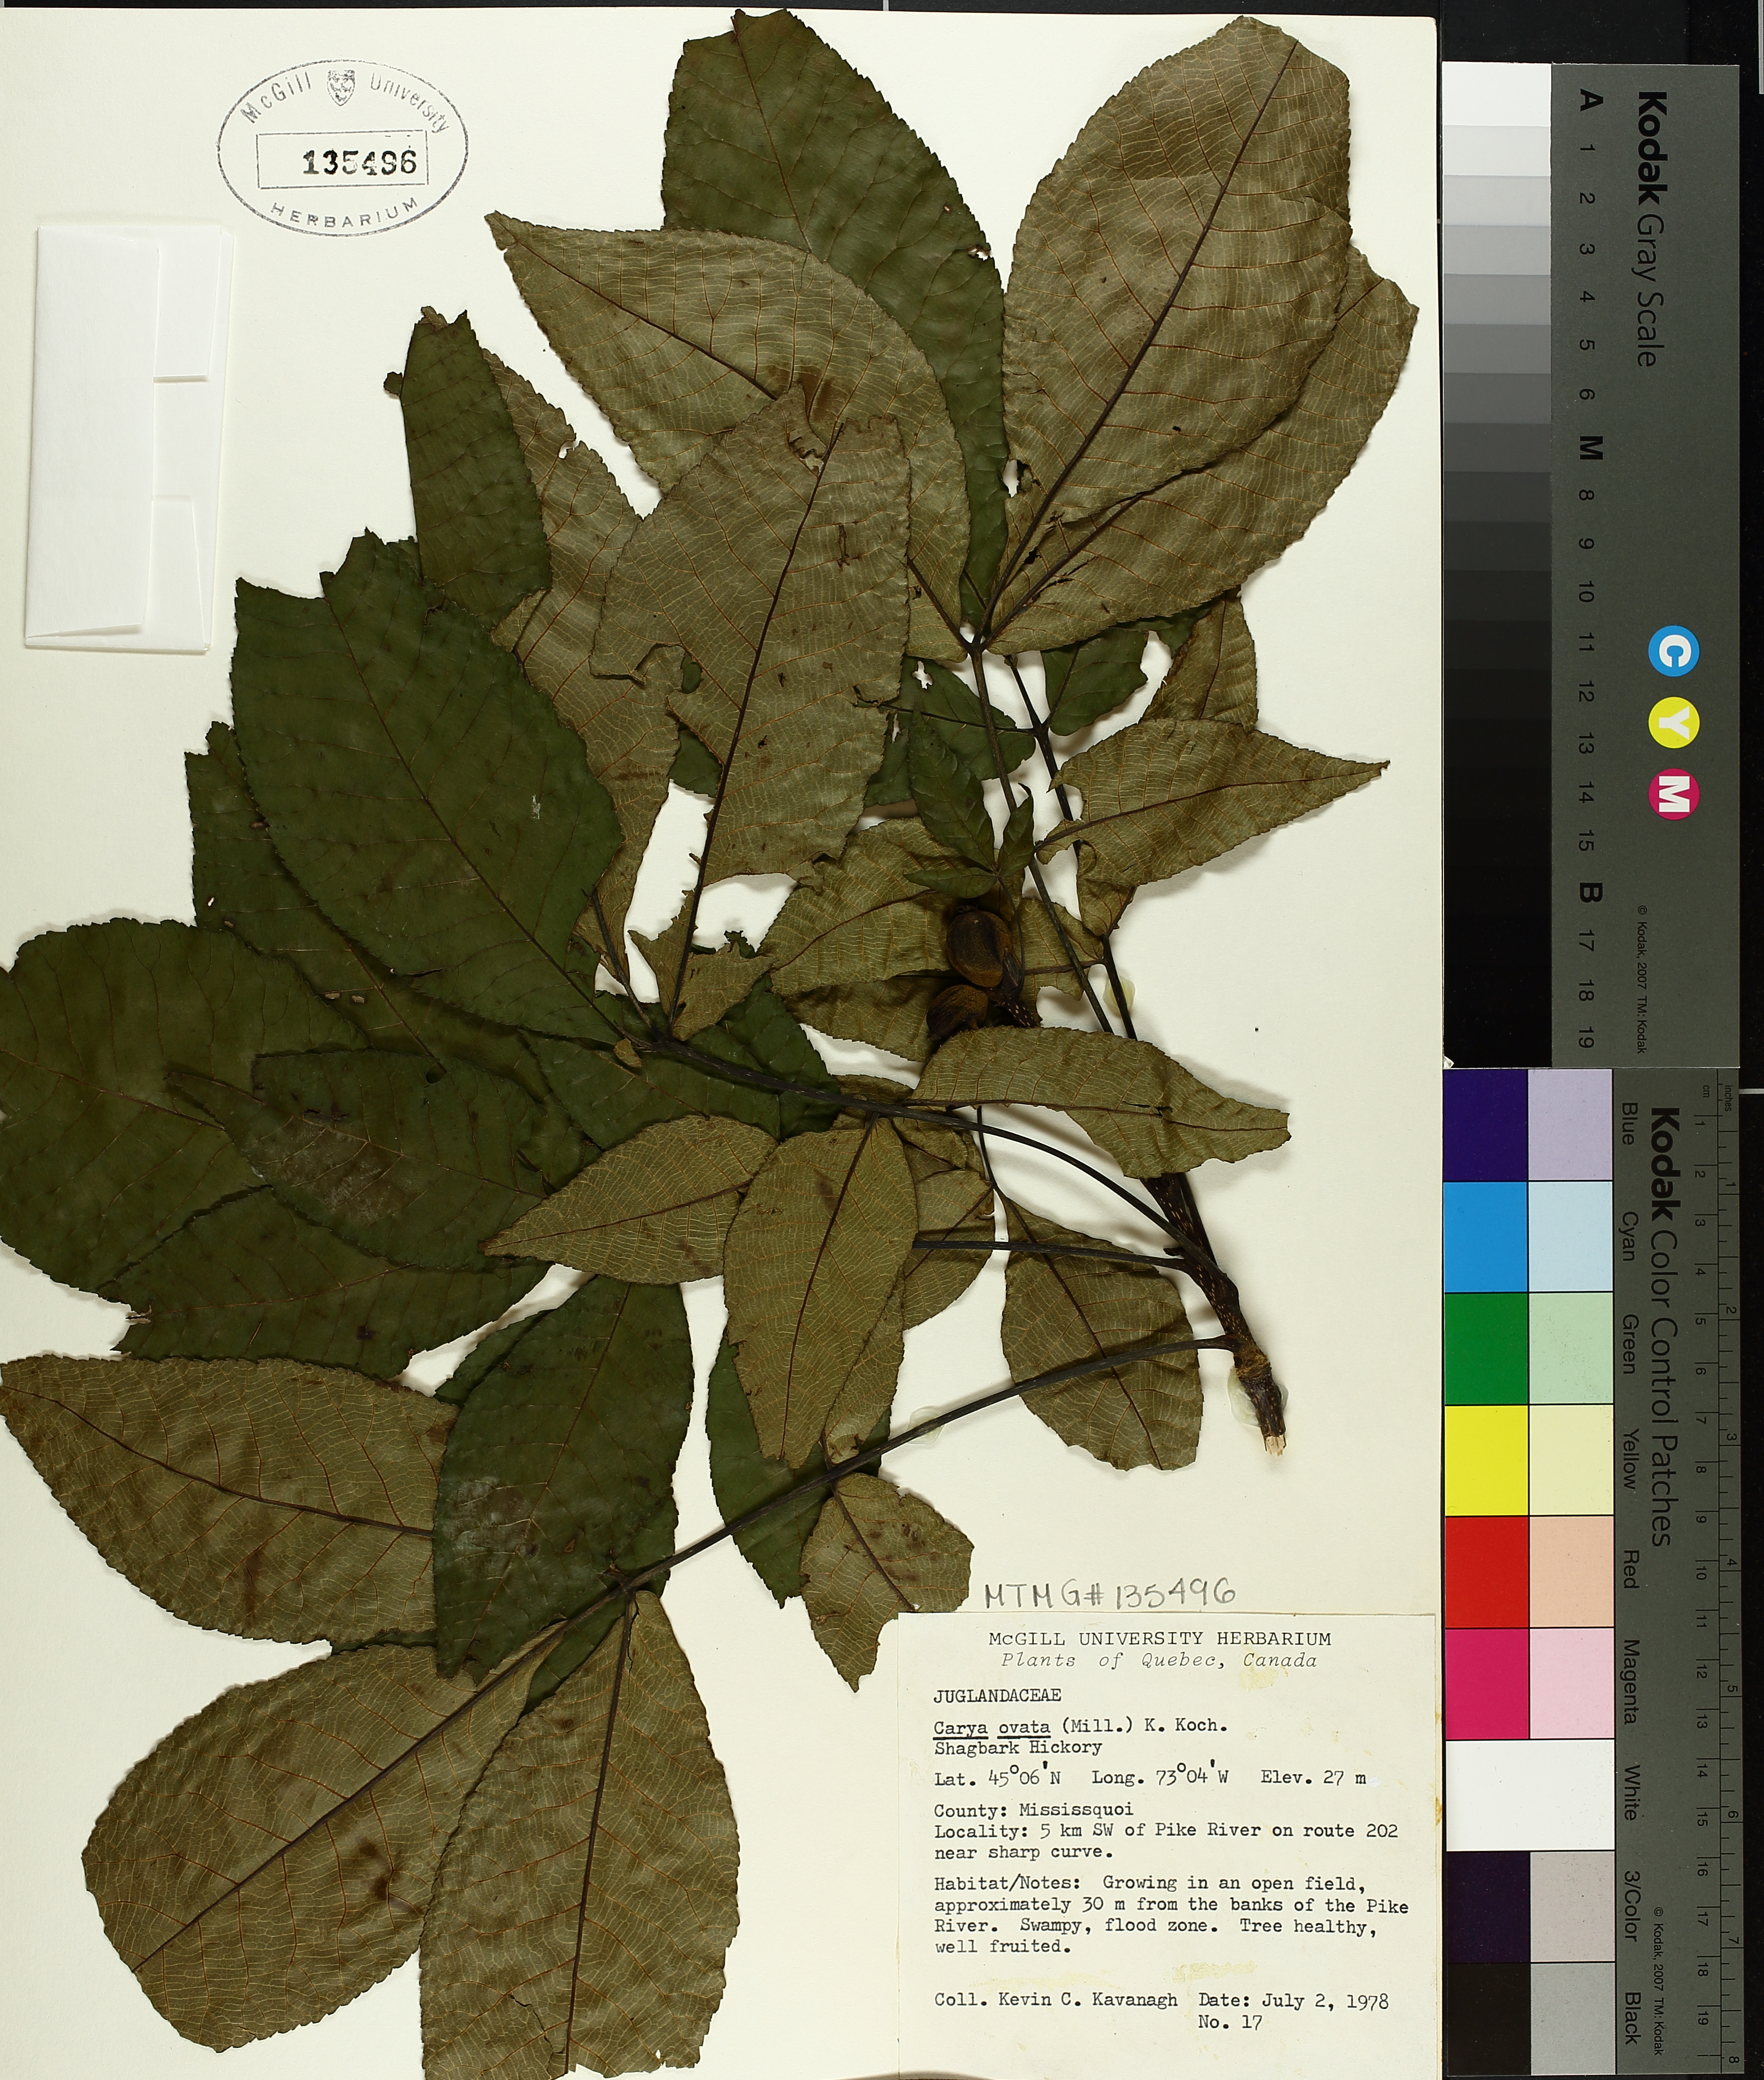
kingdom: Plantae
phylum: Tracheophyta
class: Magnoliopsida
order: Fagales
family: Juglandaceae
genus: Carya
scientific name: Carya ovata
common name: Shagbark hickory
